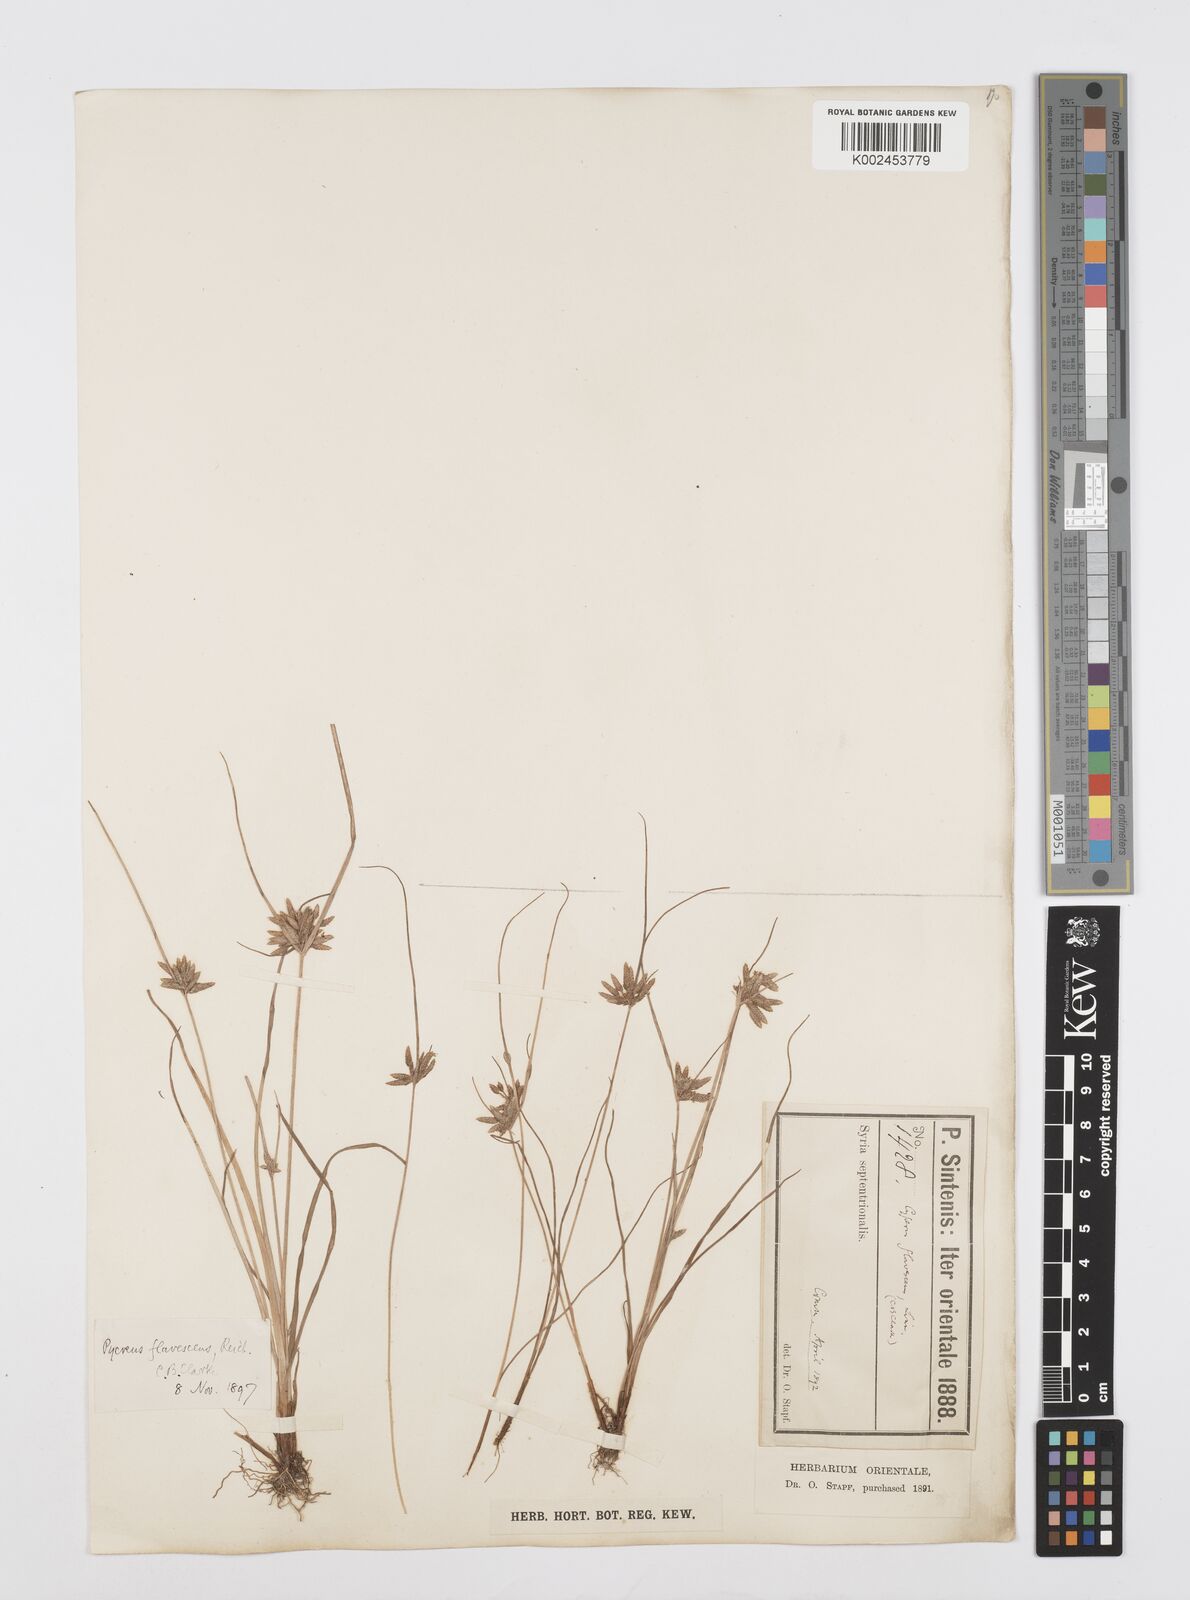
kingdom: Plantae
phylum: Tracheophyta
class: Liliopsida
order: Poales
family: Cyperaceae
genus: Cyperus
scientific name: Cyperus flavescens
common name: Yellow galingale
